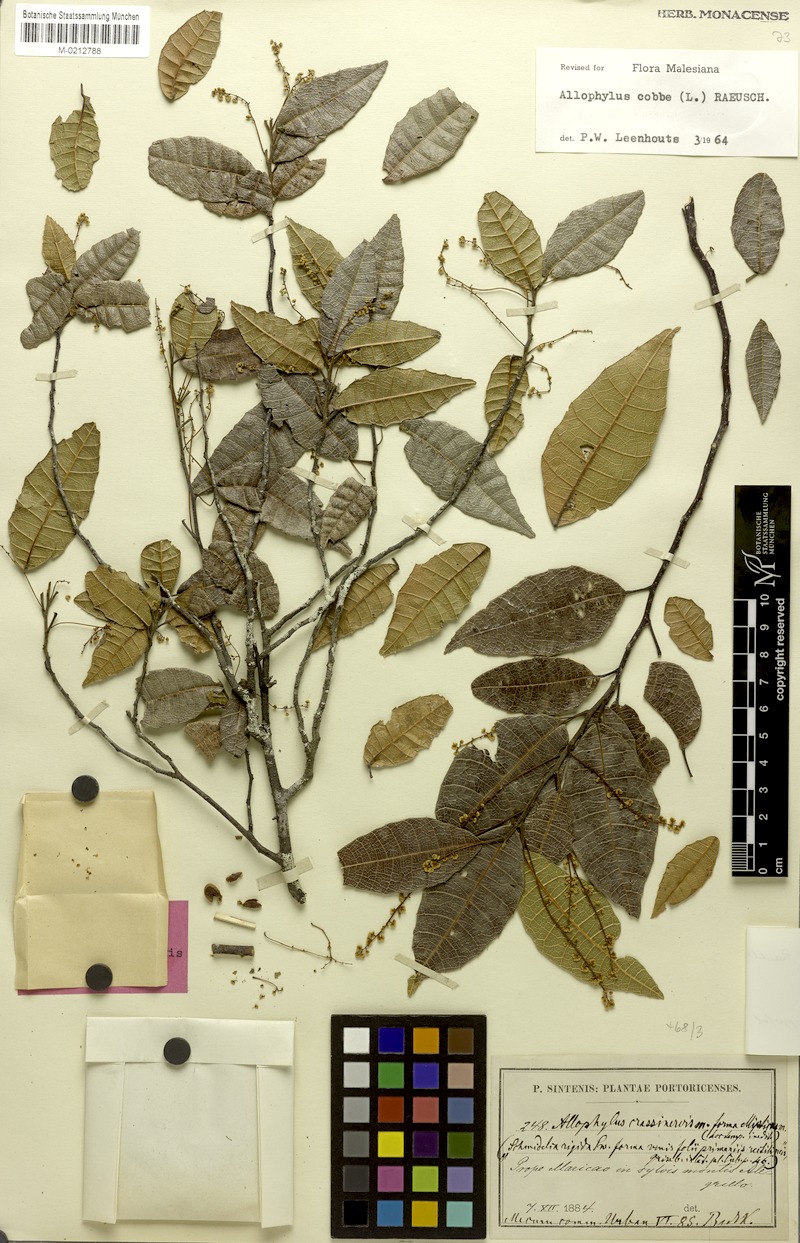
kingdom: Plantae
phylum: Tracheophyta
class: Magnoliopsida
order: Sapindales
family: Sapindaceae
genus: Allophylus
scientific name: Allophylus crassinervis
